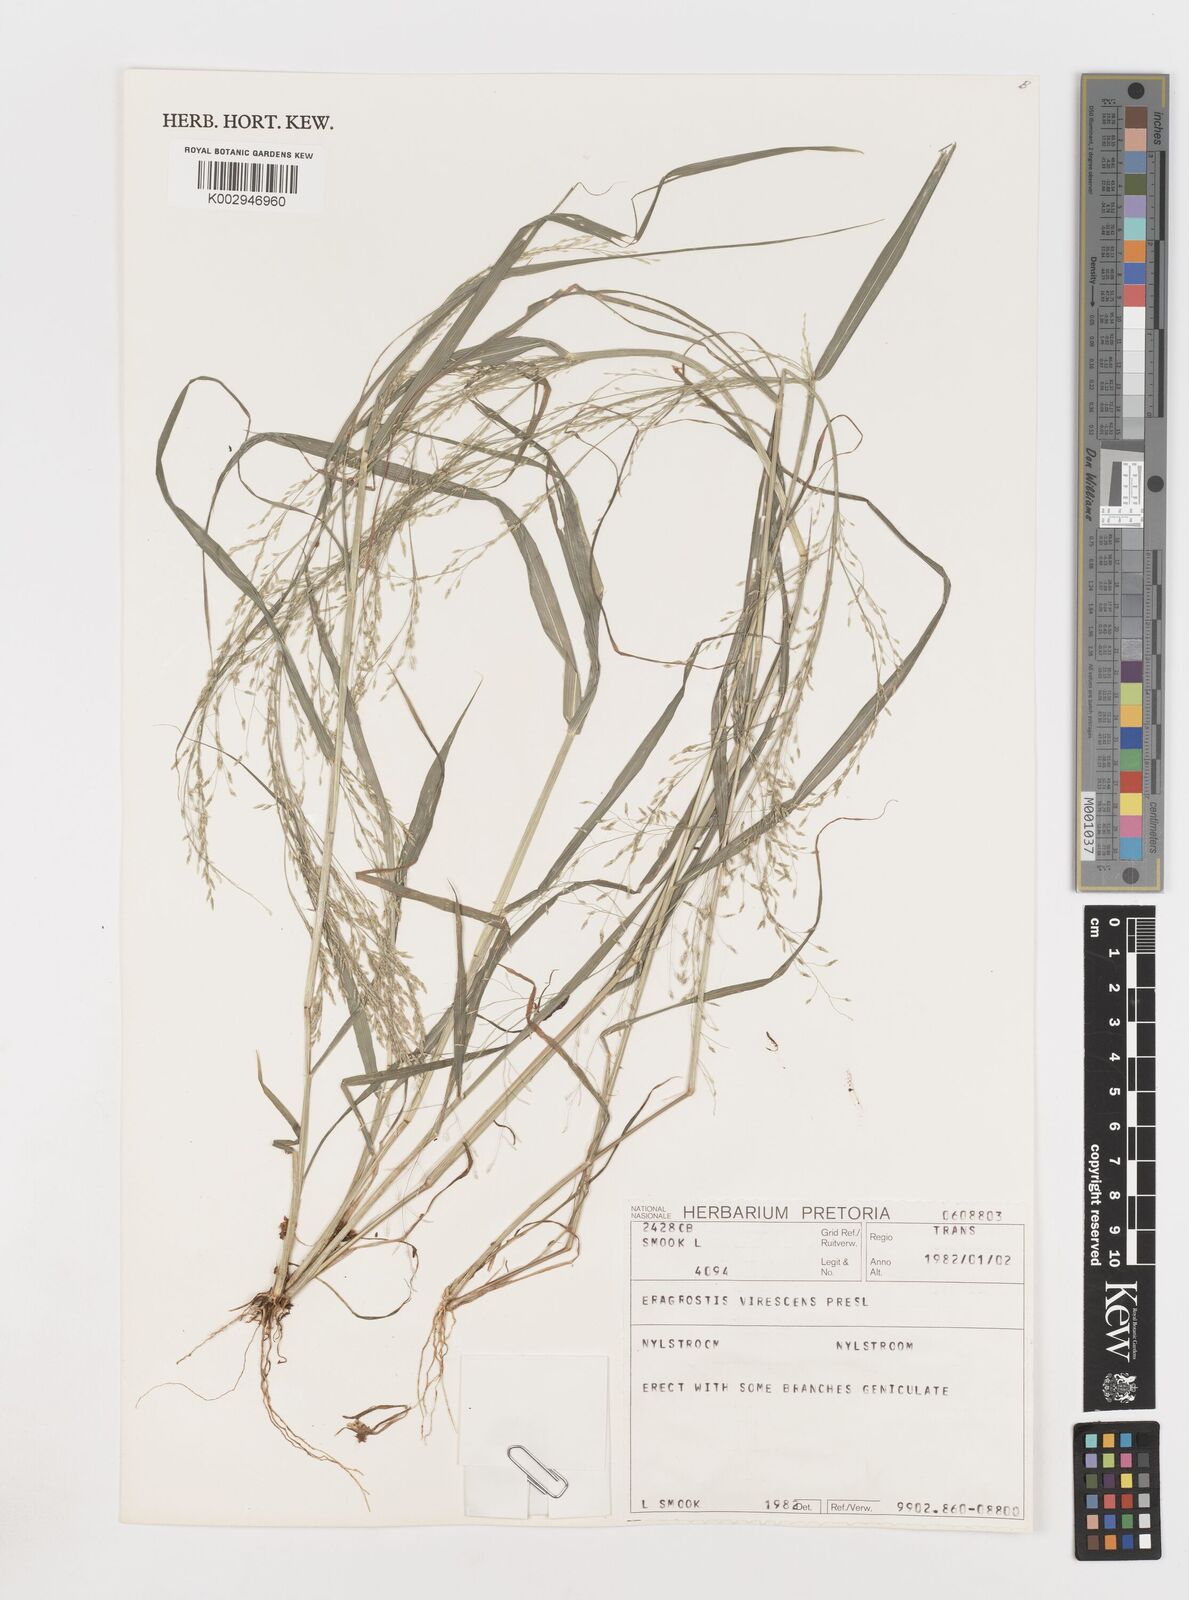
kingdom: Plantae
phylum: Tracheophyta
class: Liliopsida
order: Poales
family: Poaceae
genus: Eragrostis
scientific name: Eragrostis
